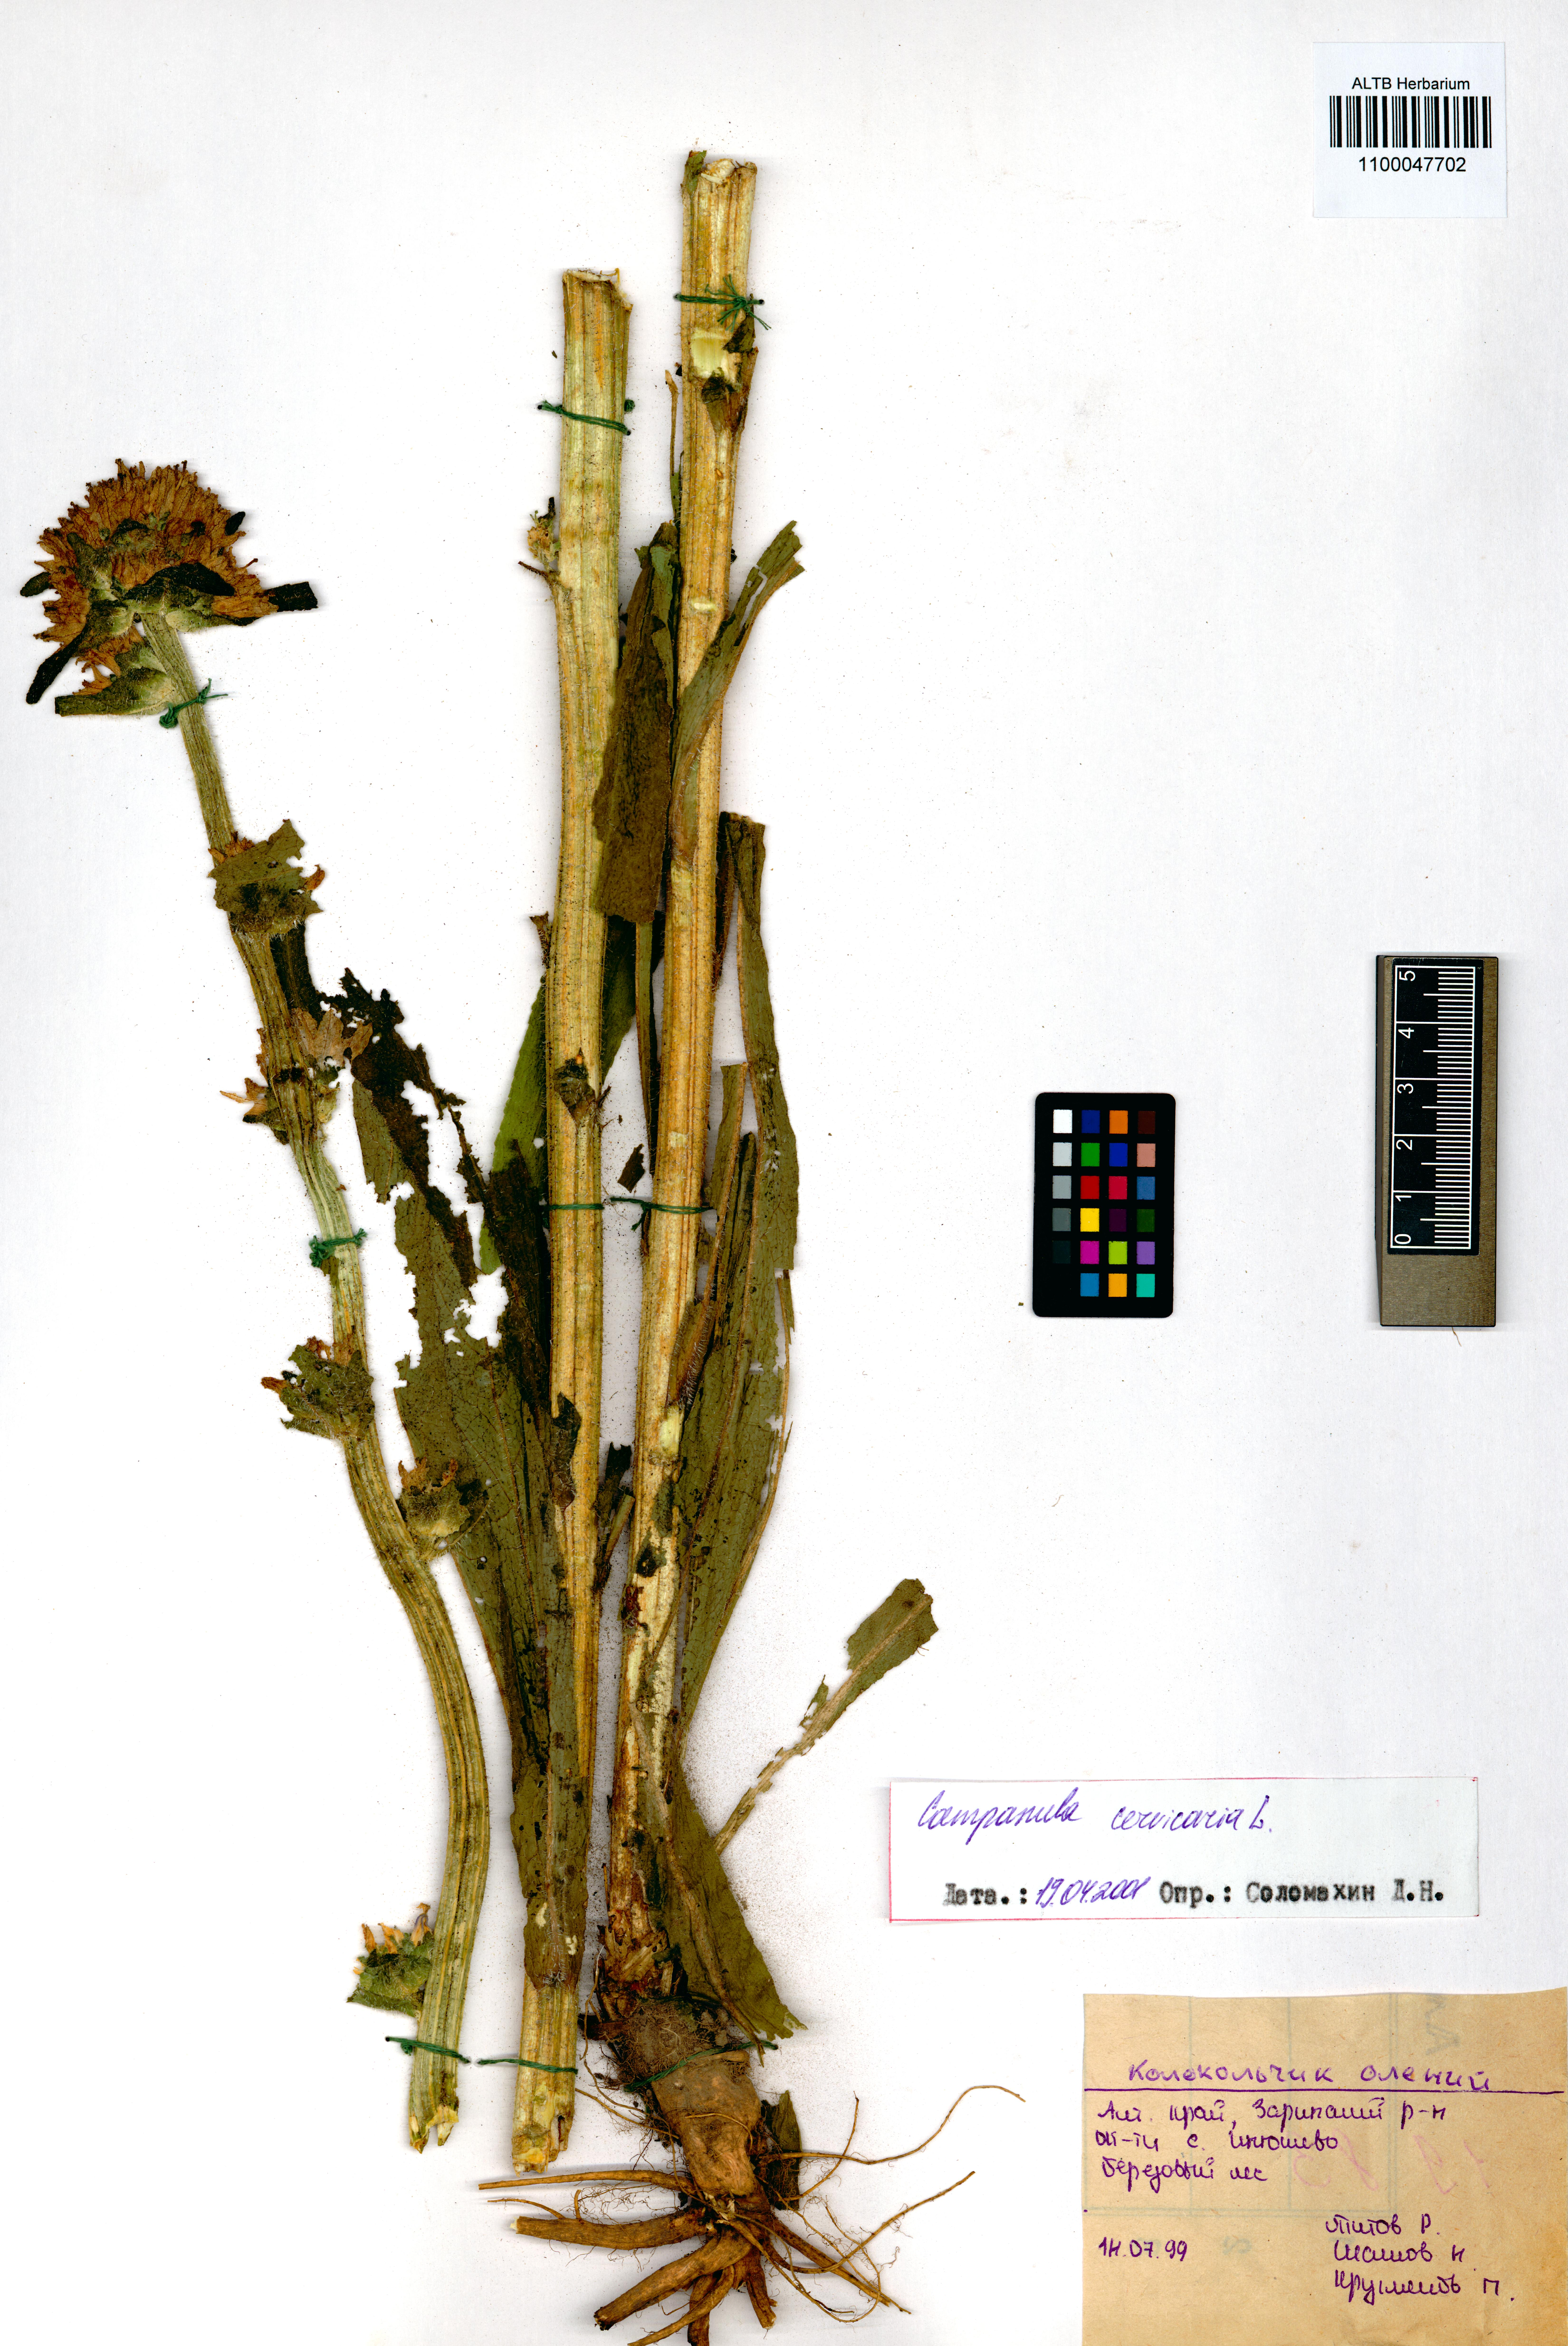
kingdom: Plantae
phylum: Tracheophyta
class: Magnoliopsida
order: Asterales
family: Campanulaceae
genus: Campanula
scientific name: Campanula cervicaria
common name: Bristly bellflower
